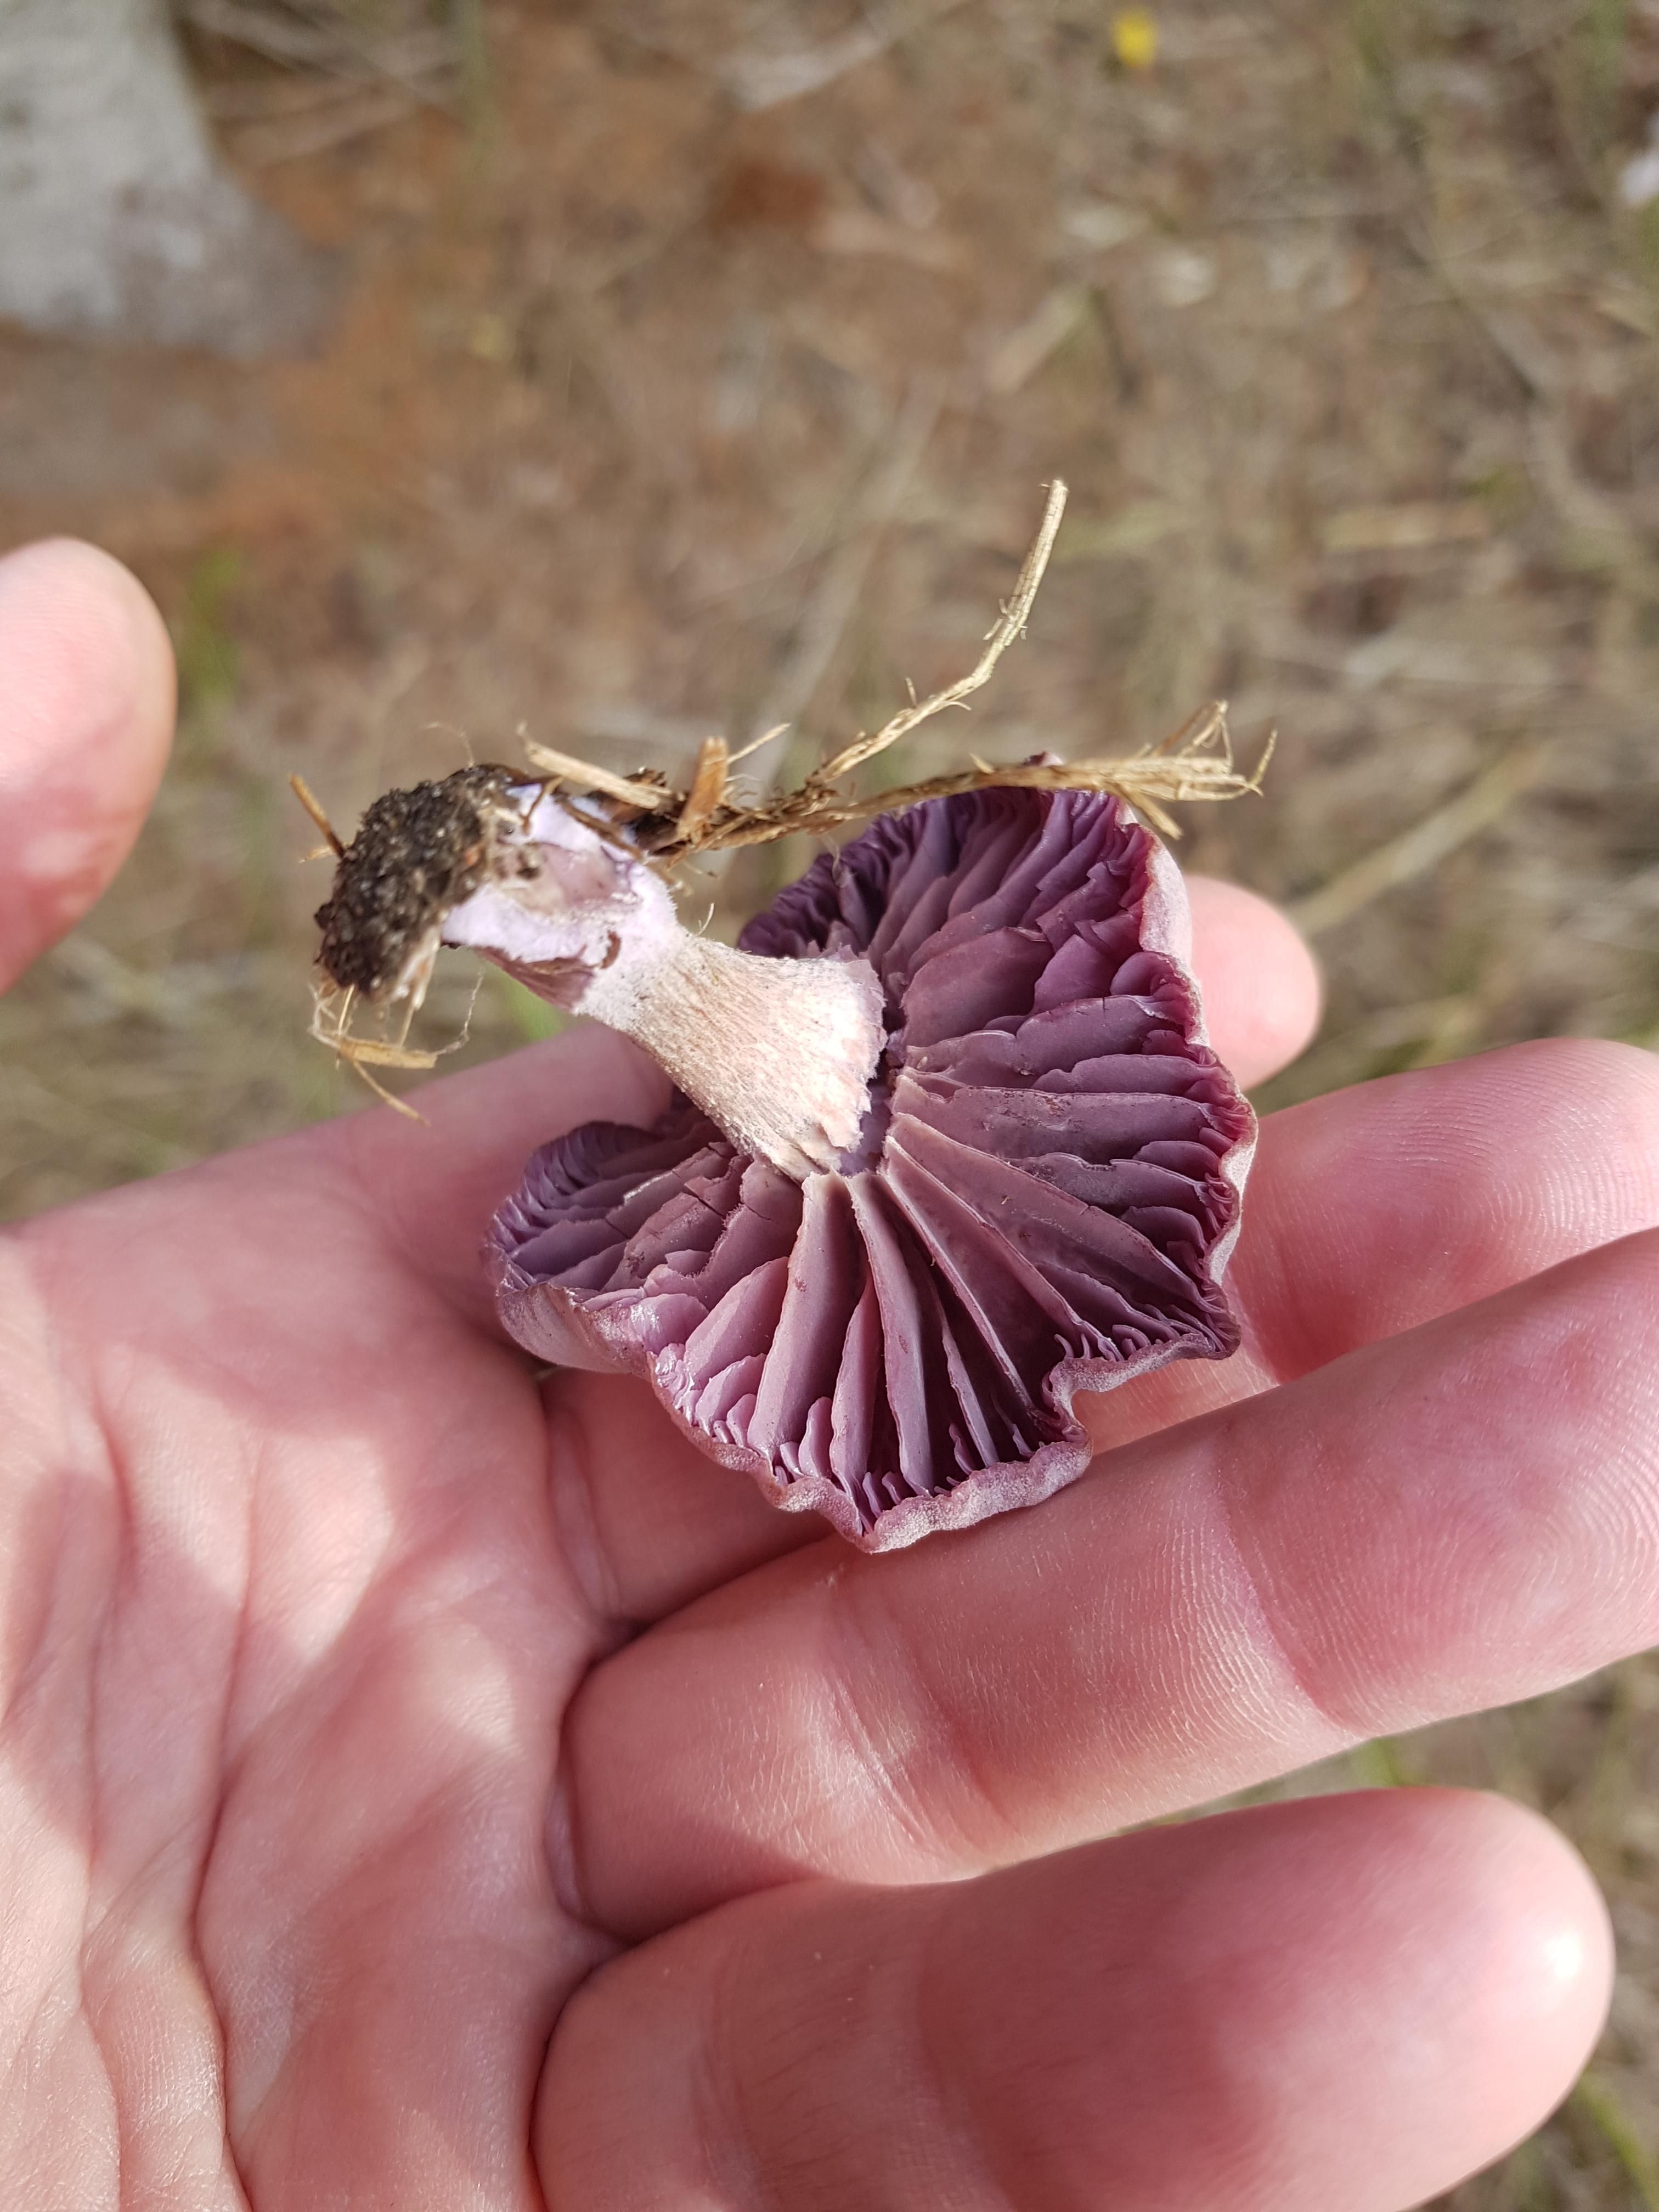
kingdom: Fungi
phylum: Basidiomycota
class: Agaricomycetes
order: Agaricales
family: Hydnangiaceae
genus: Laccaria
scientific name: Laccaria amethystina
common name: violet ametysthat
